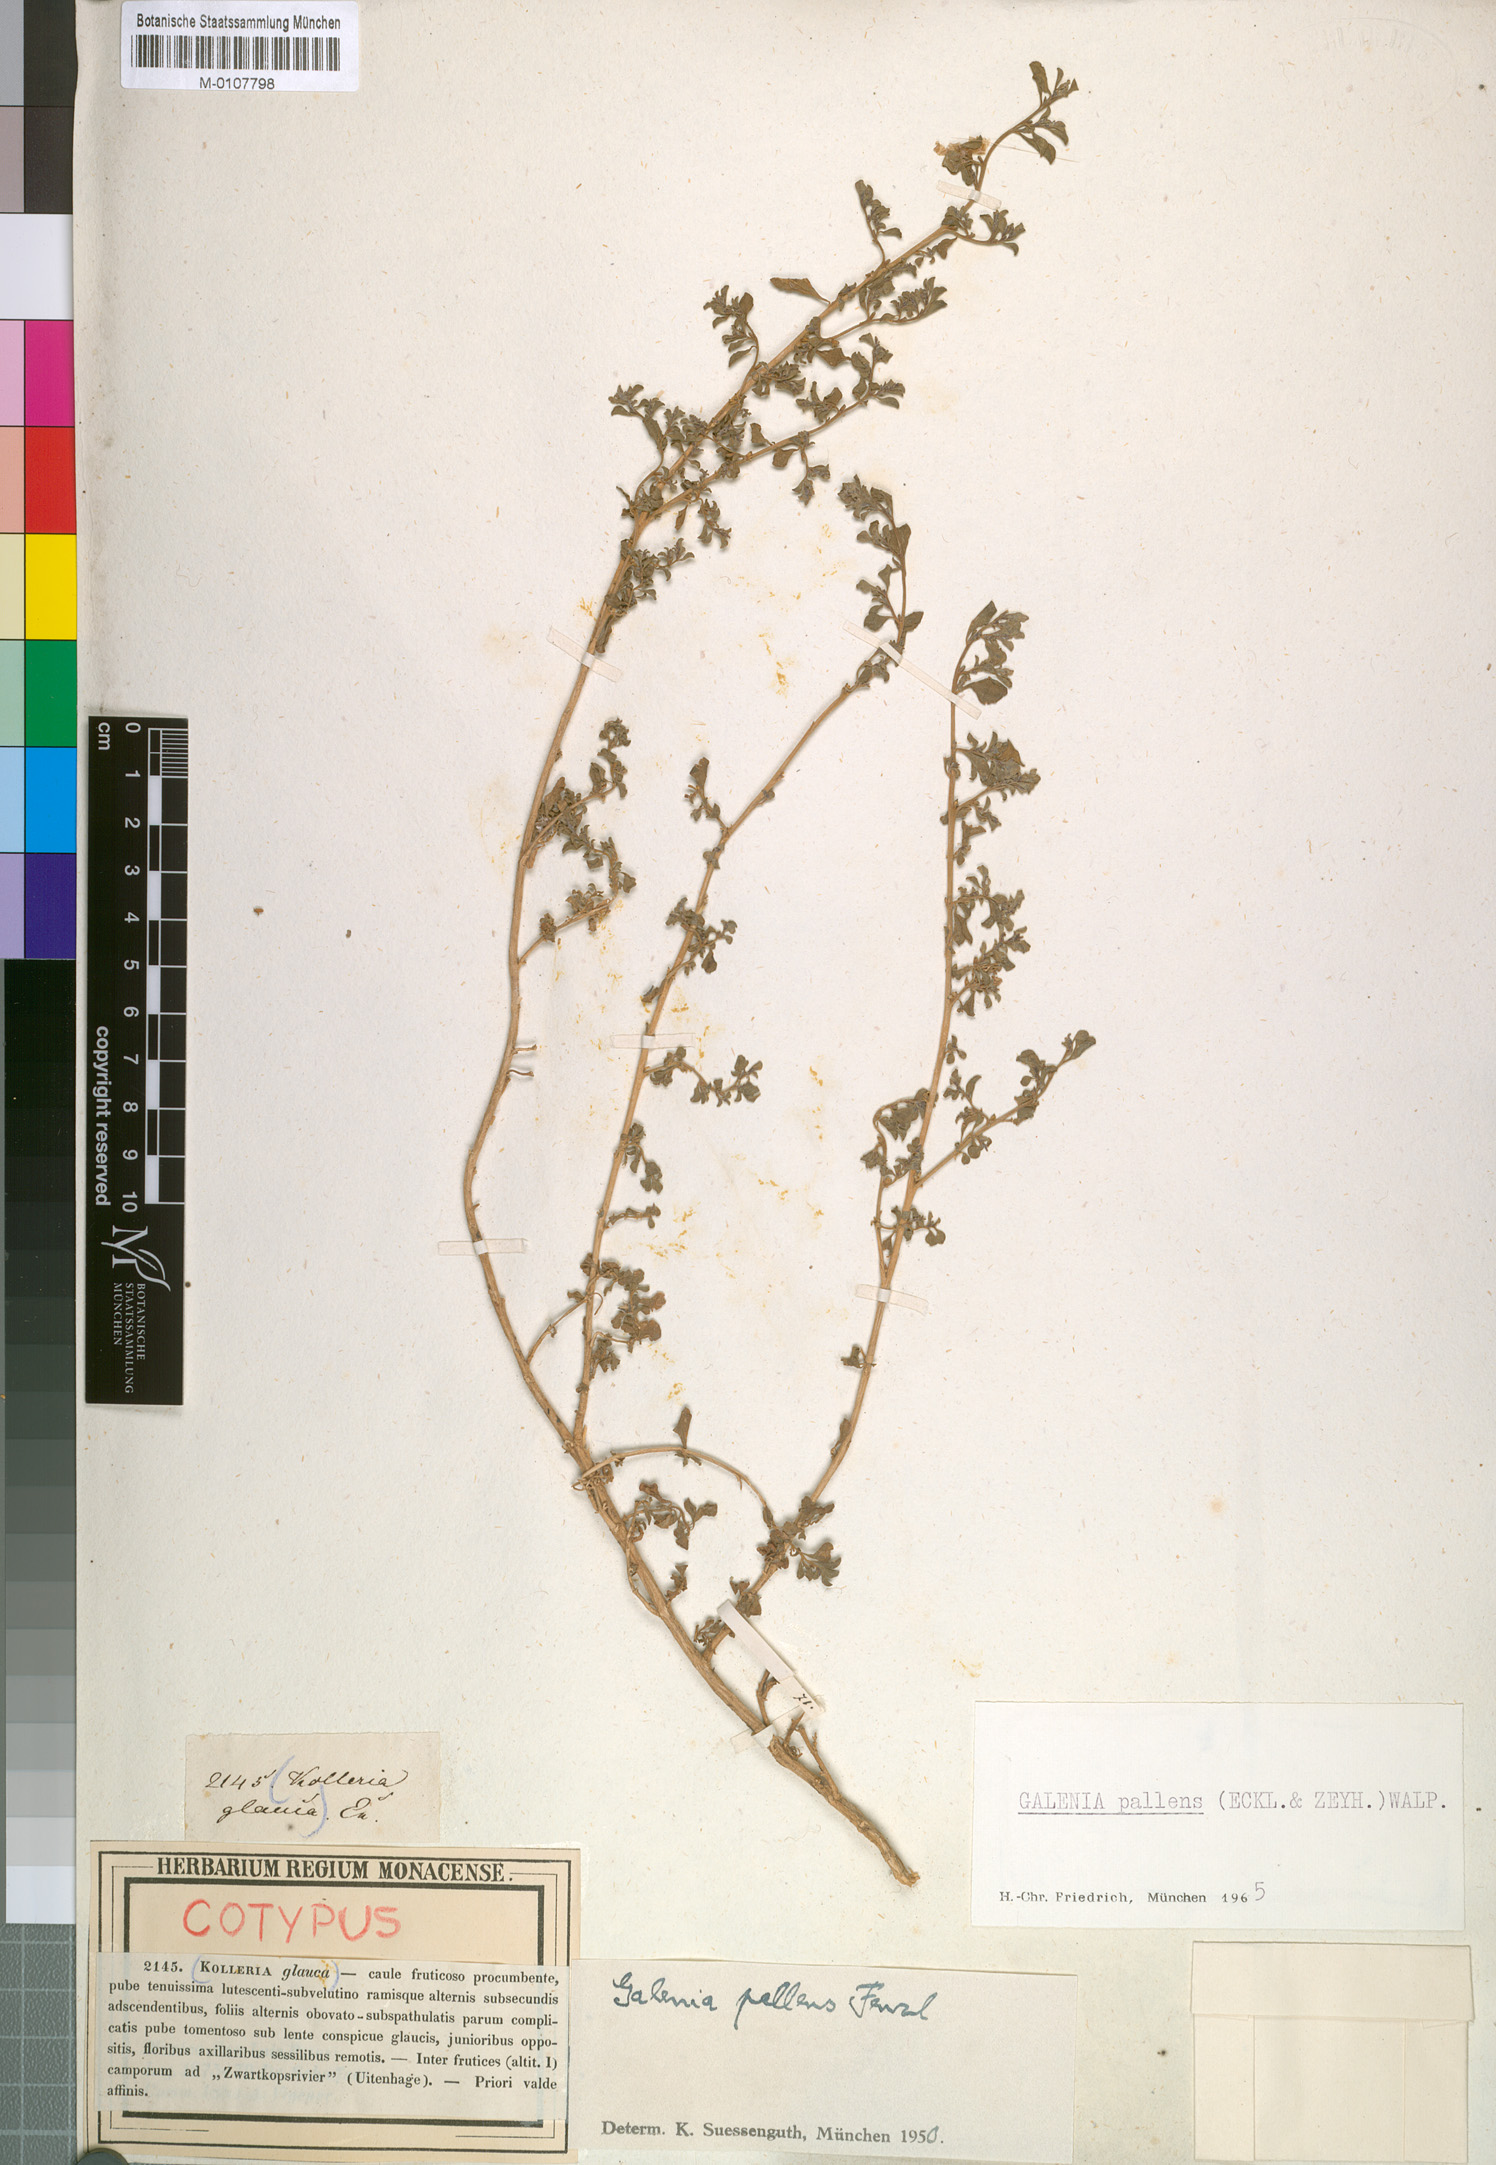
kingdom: Plantae
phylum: Tracheophyta
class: Magnoliopsida
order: Caryophyllales
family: Aizoaceae
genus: Aizoon
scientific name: Aizoon pallens
